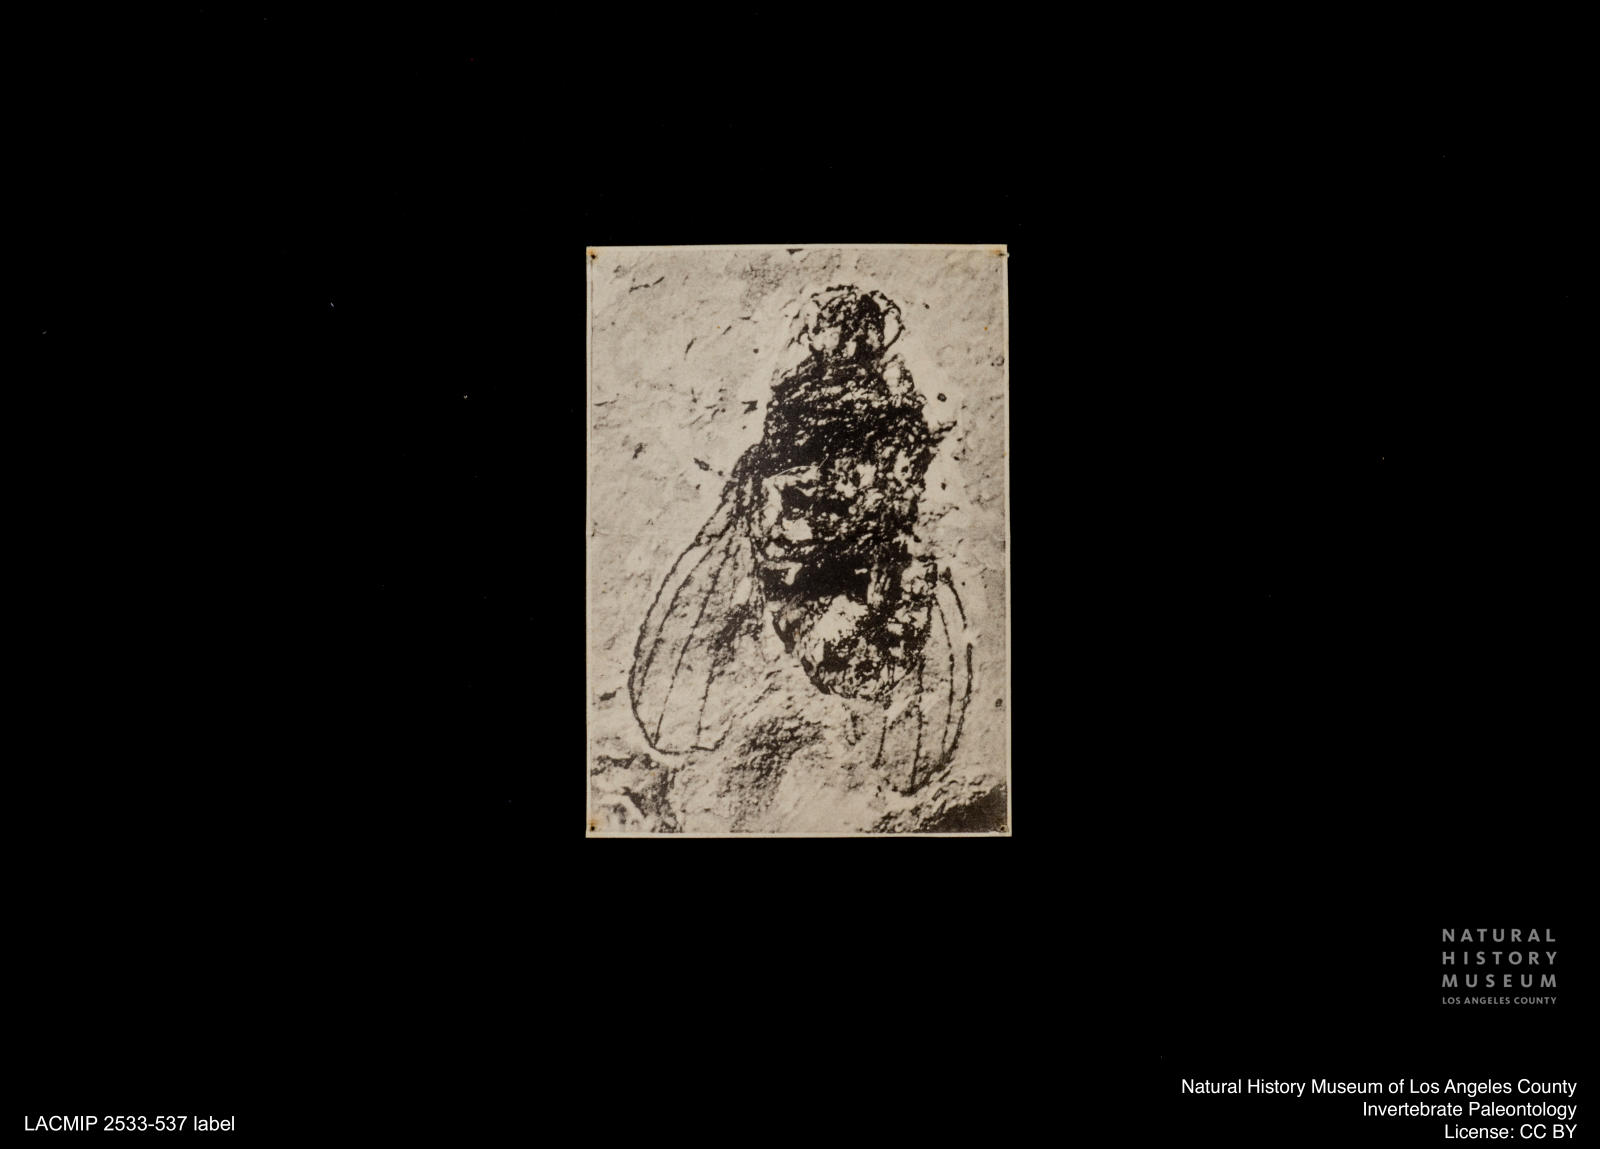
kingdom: Animalia
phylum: Arthropoda
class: Insecta
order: Diptera
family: Opomyzidae
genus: Opomyza
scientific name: Opomyza venusta
